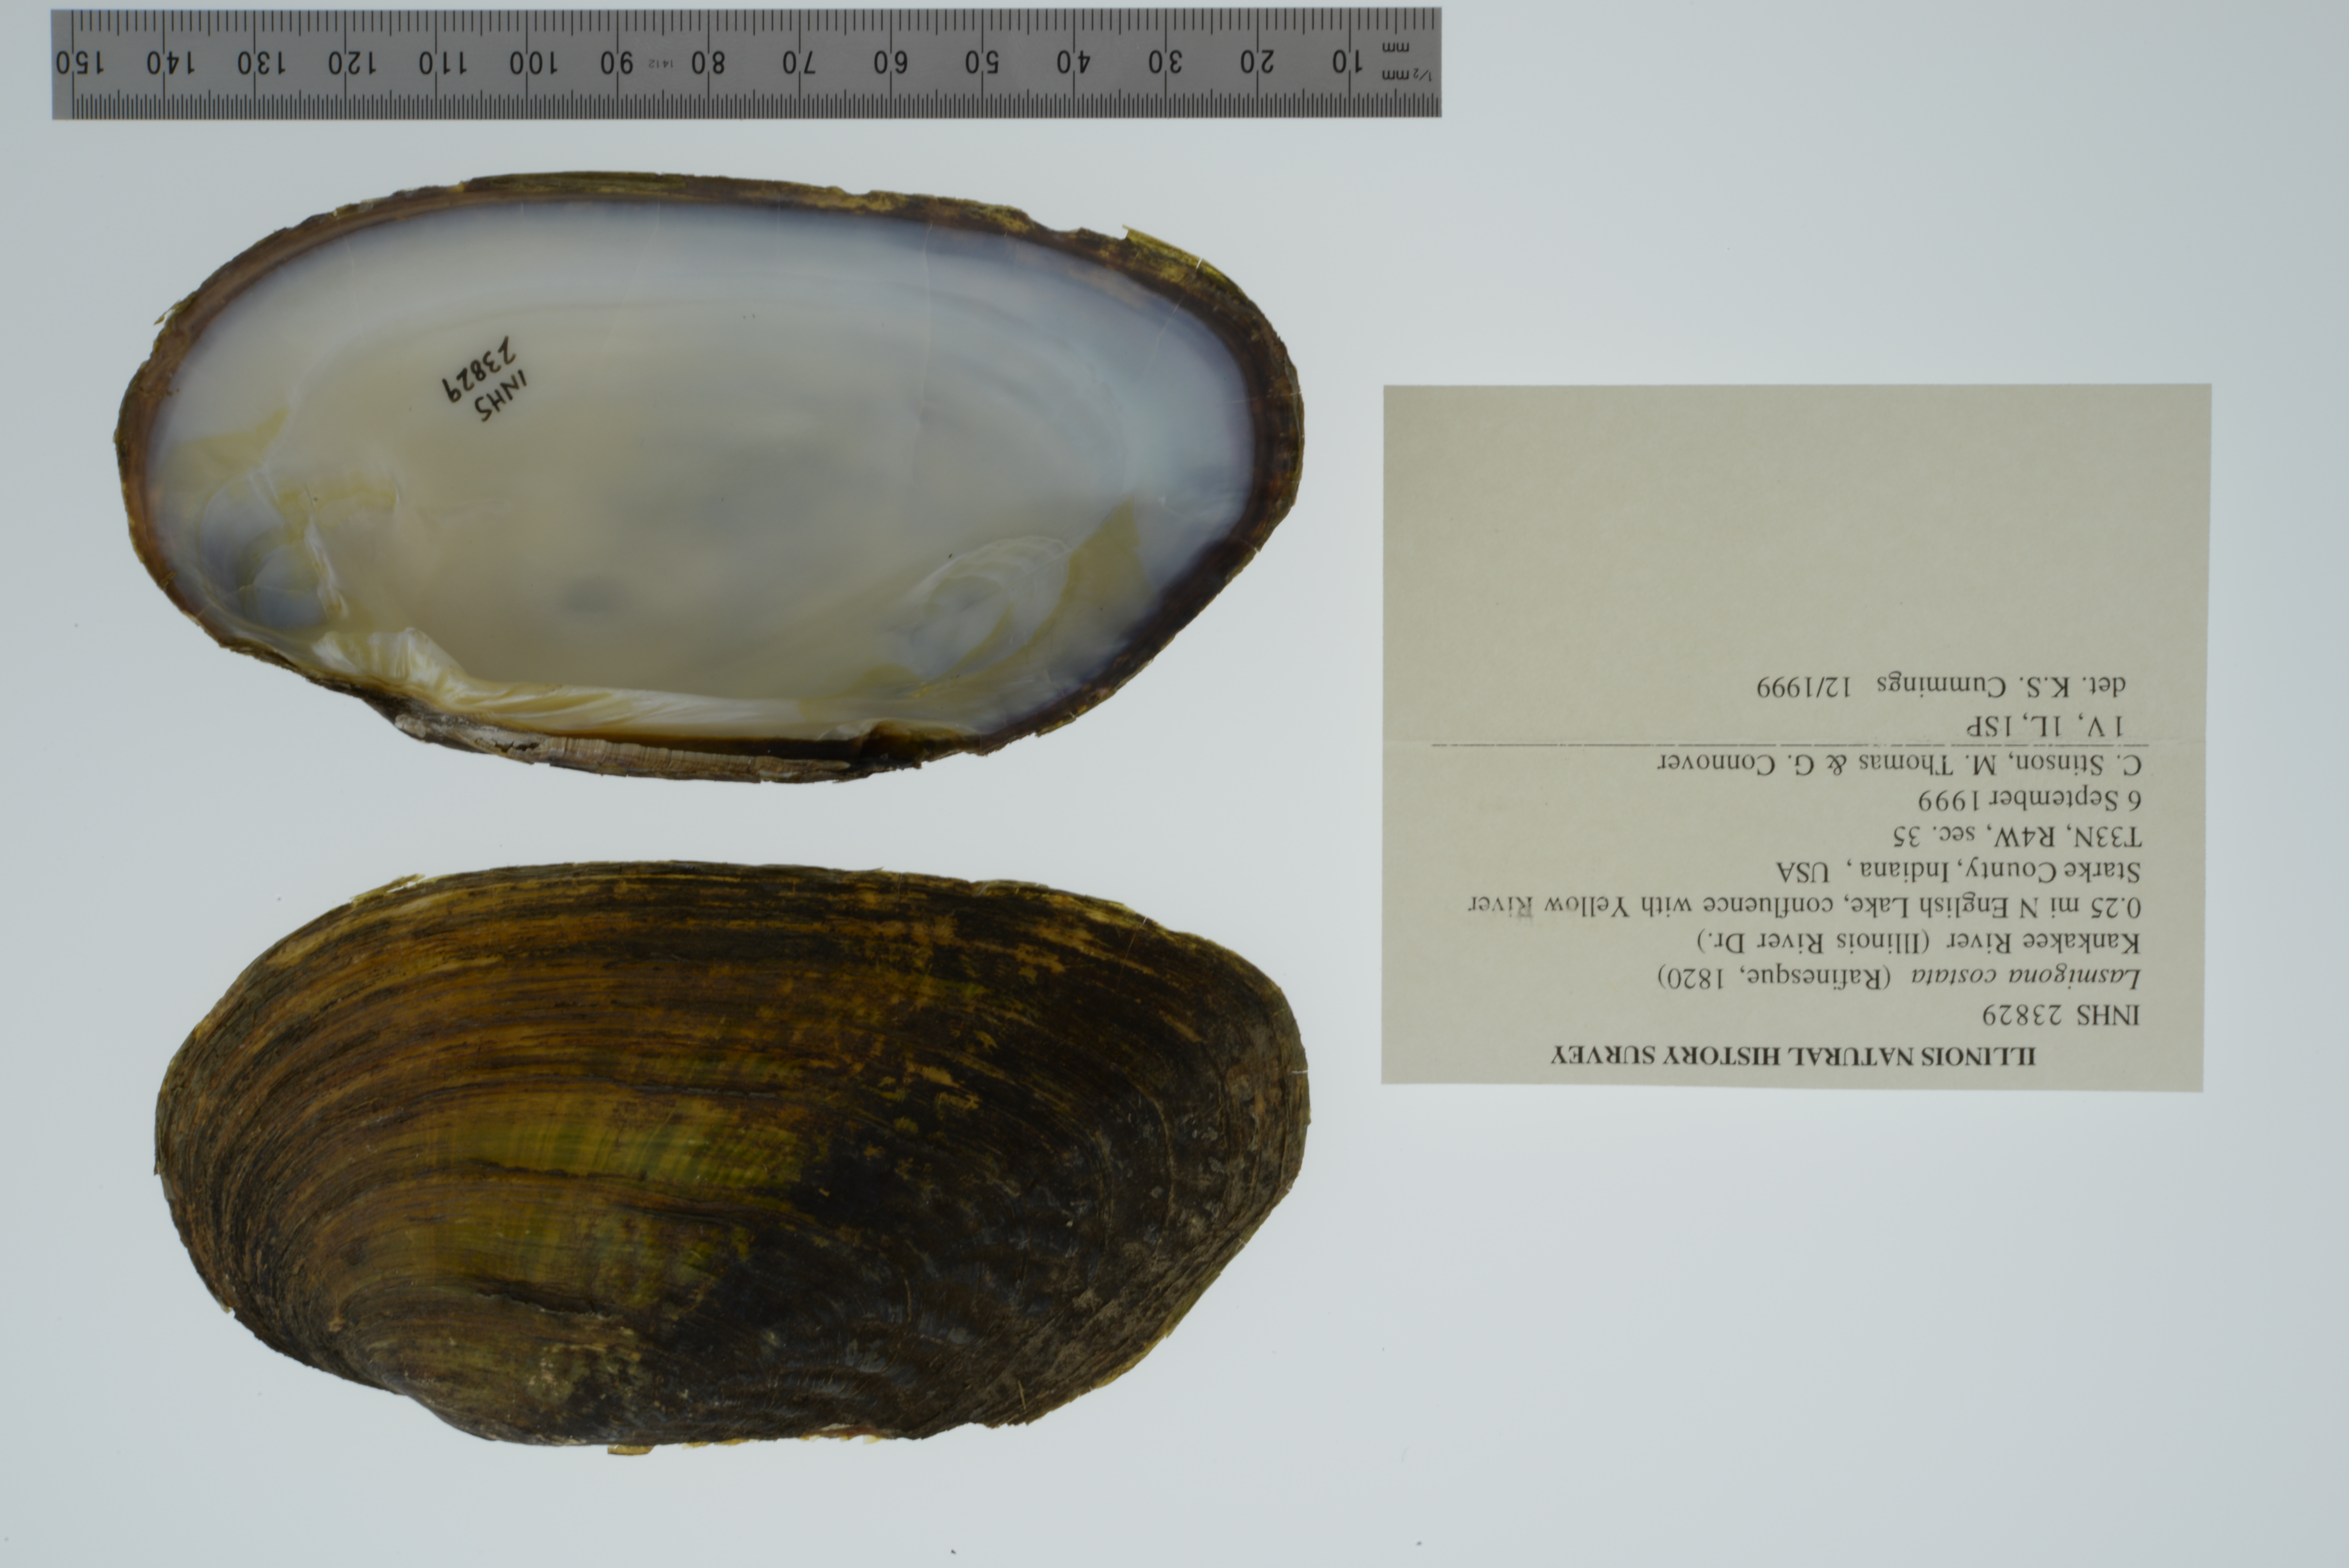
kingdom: Animalia
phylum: Mollusca
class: Bivalvia
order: Unionida
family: Unionidae
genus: Lasmigona
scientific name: Lasmigona costata
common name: Flutedshell
